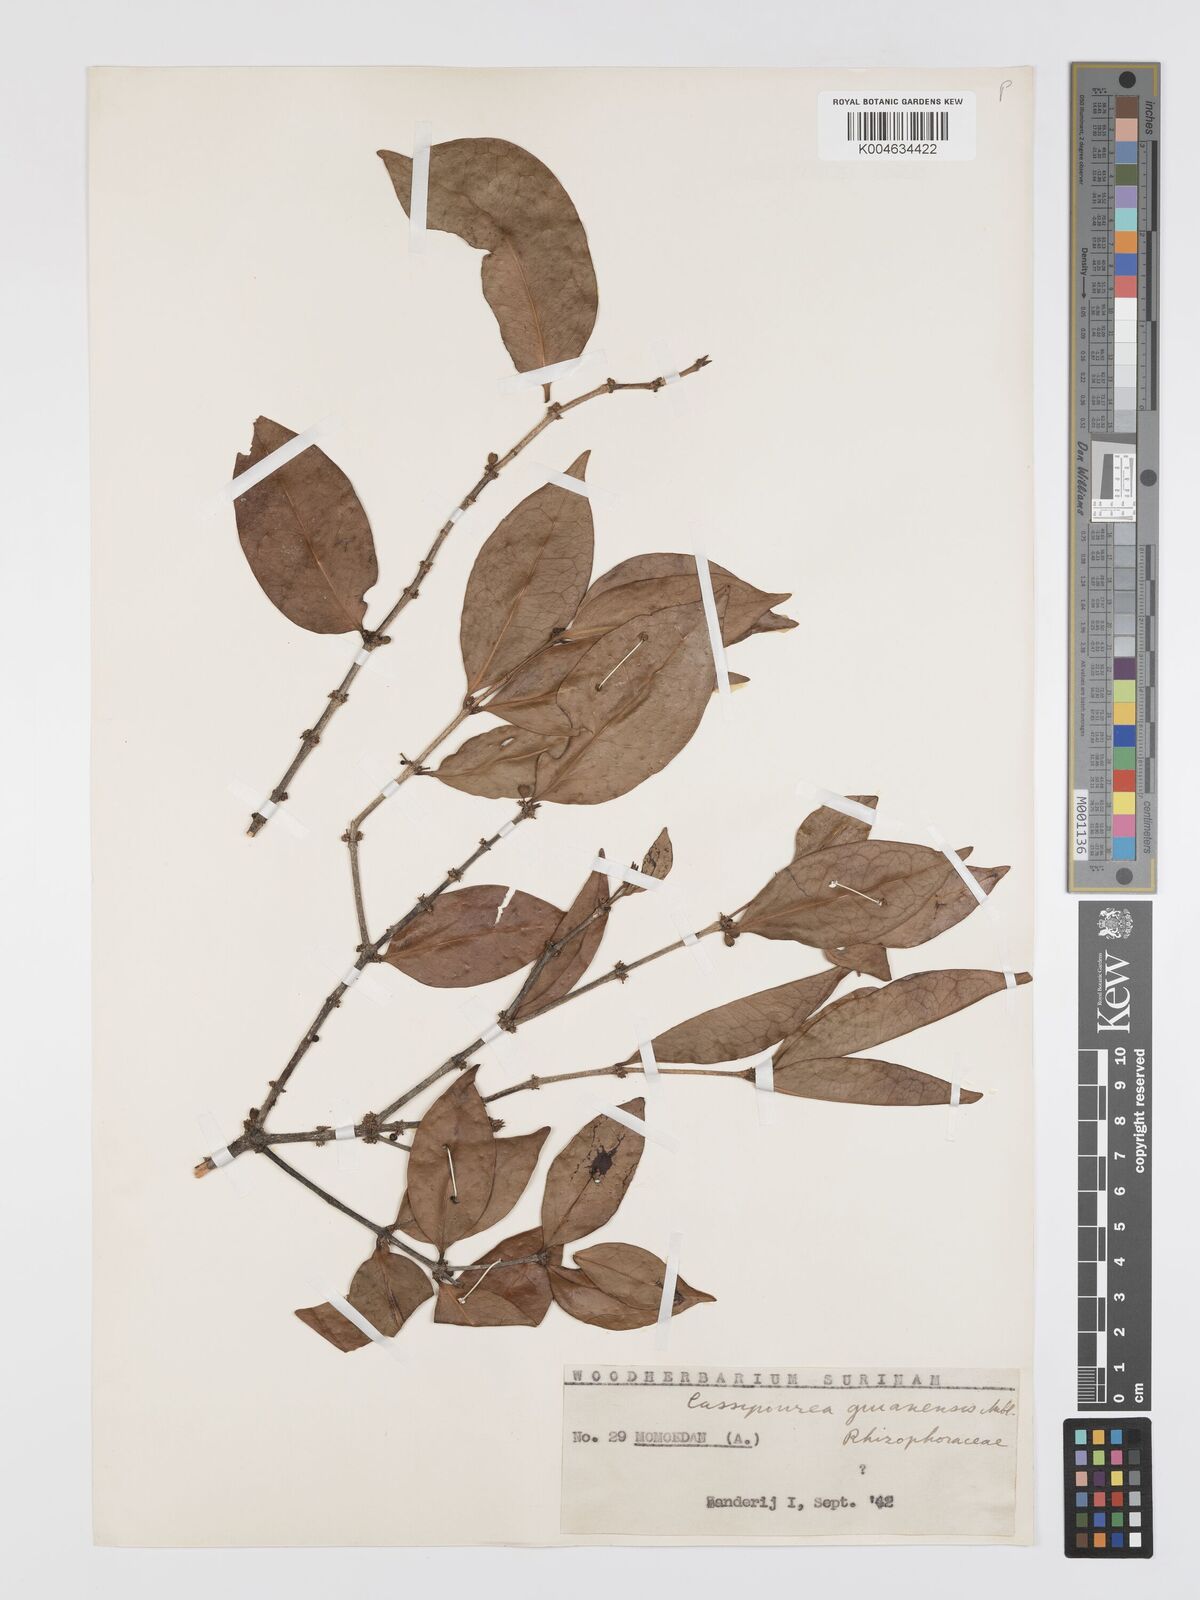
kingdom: Plantae
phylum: Tracheophyta
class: Magnoliopsida
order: Malpighiales
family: Rhizophoraceae
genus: Cassipourea
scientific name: Cassipourea guianensis
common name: Bastard waterwood
